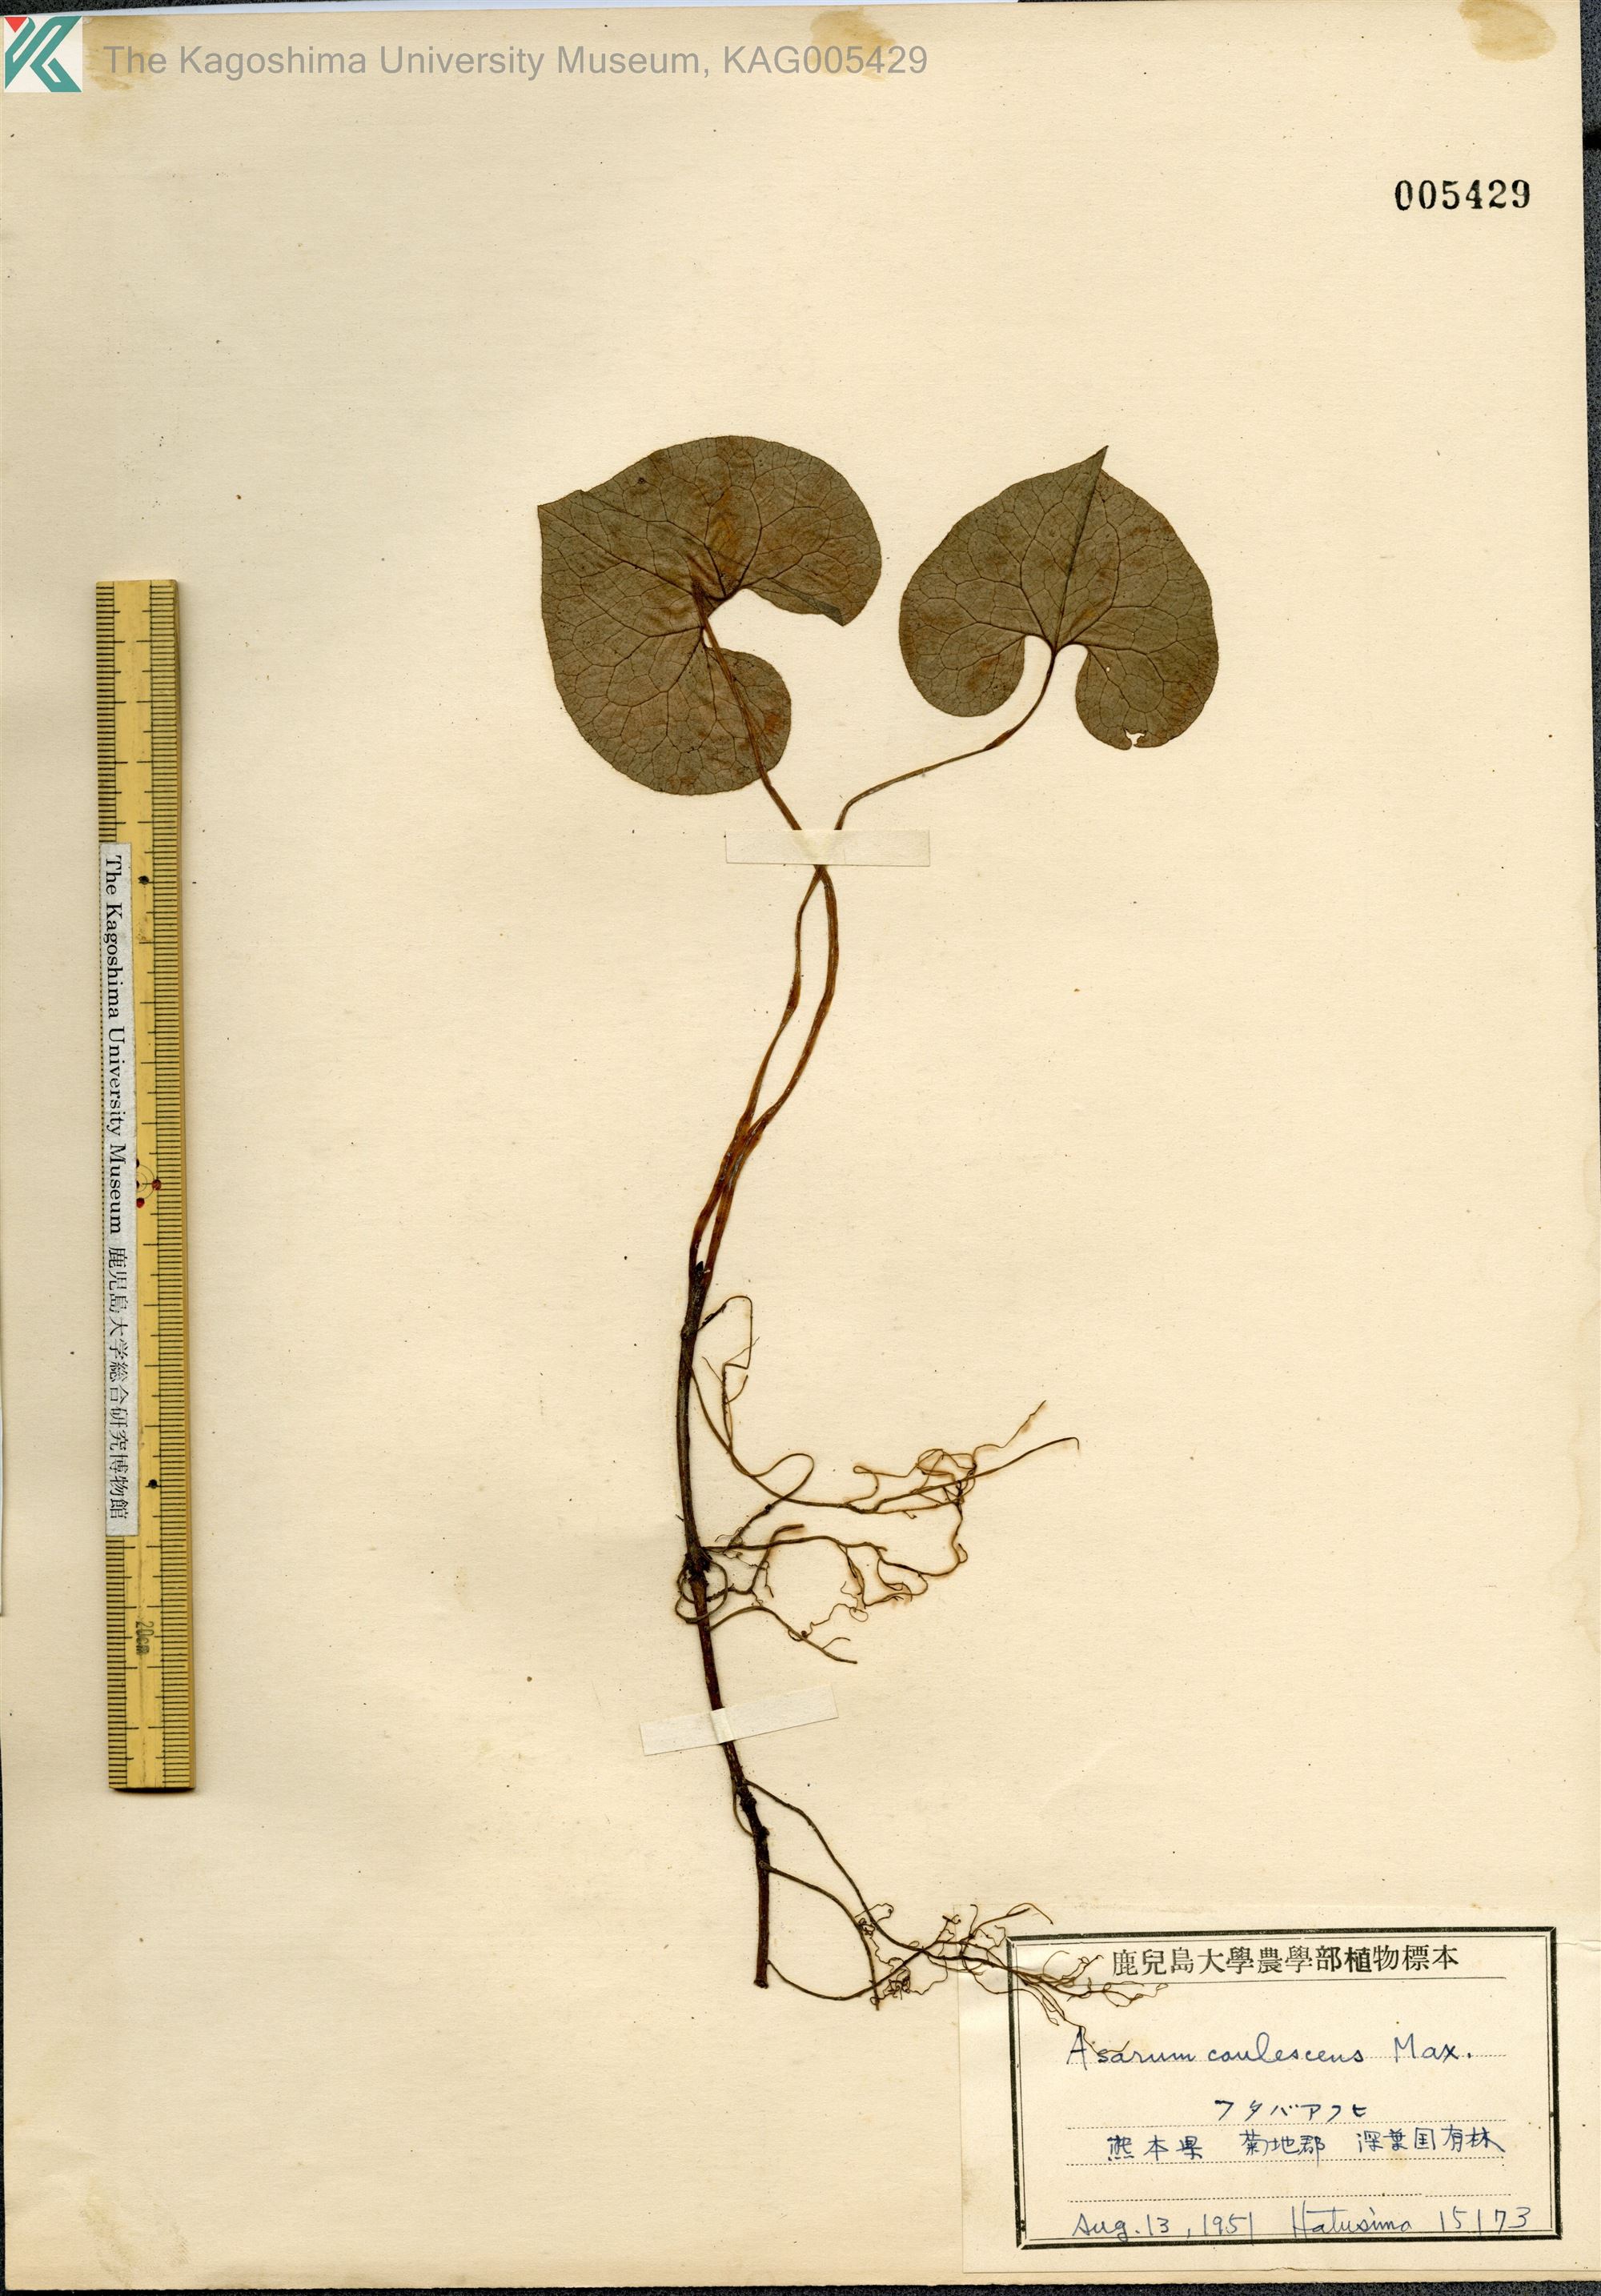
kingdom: Plantae
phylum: Tracheophyta
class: Magnoliopsida
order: Piperales
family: Aristolochiaceae
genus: Asarum
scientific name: Asarum caulescens
